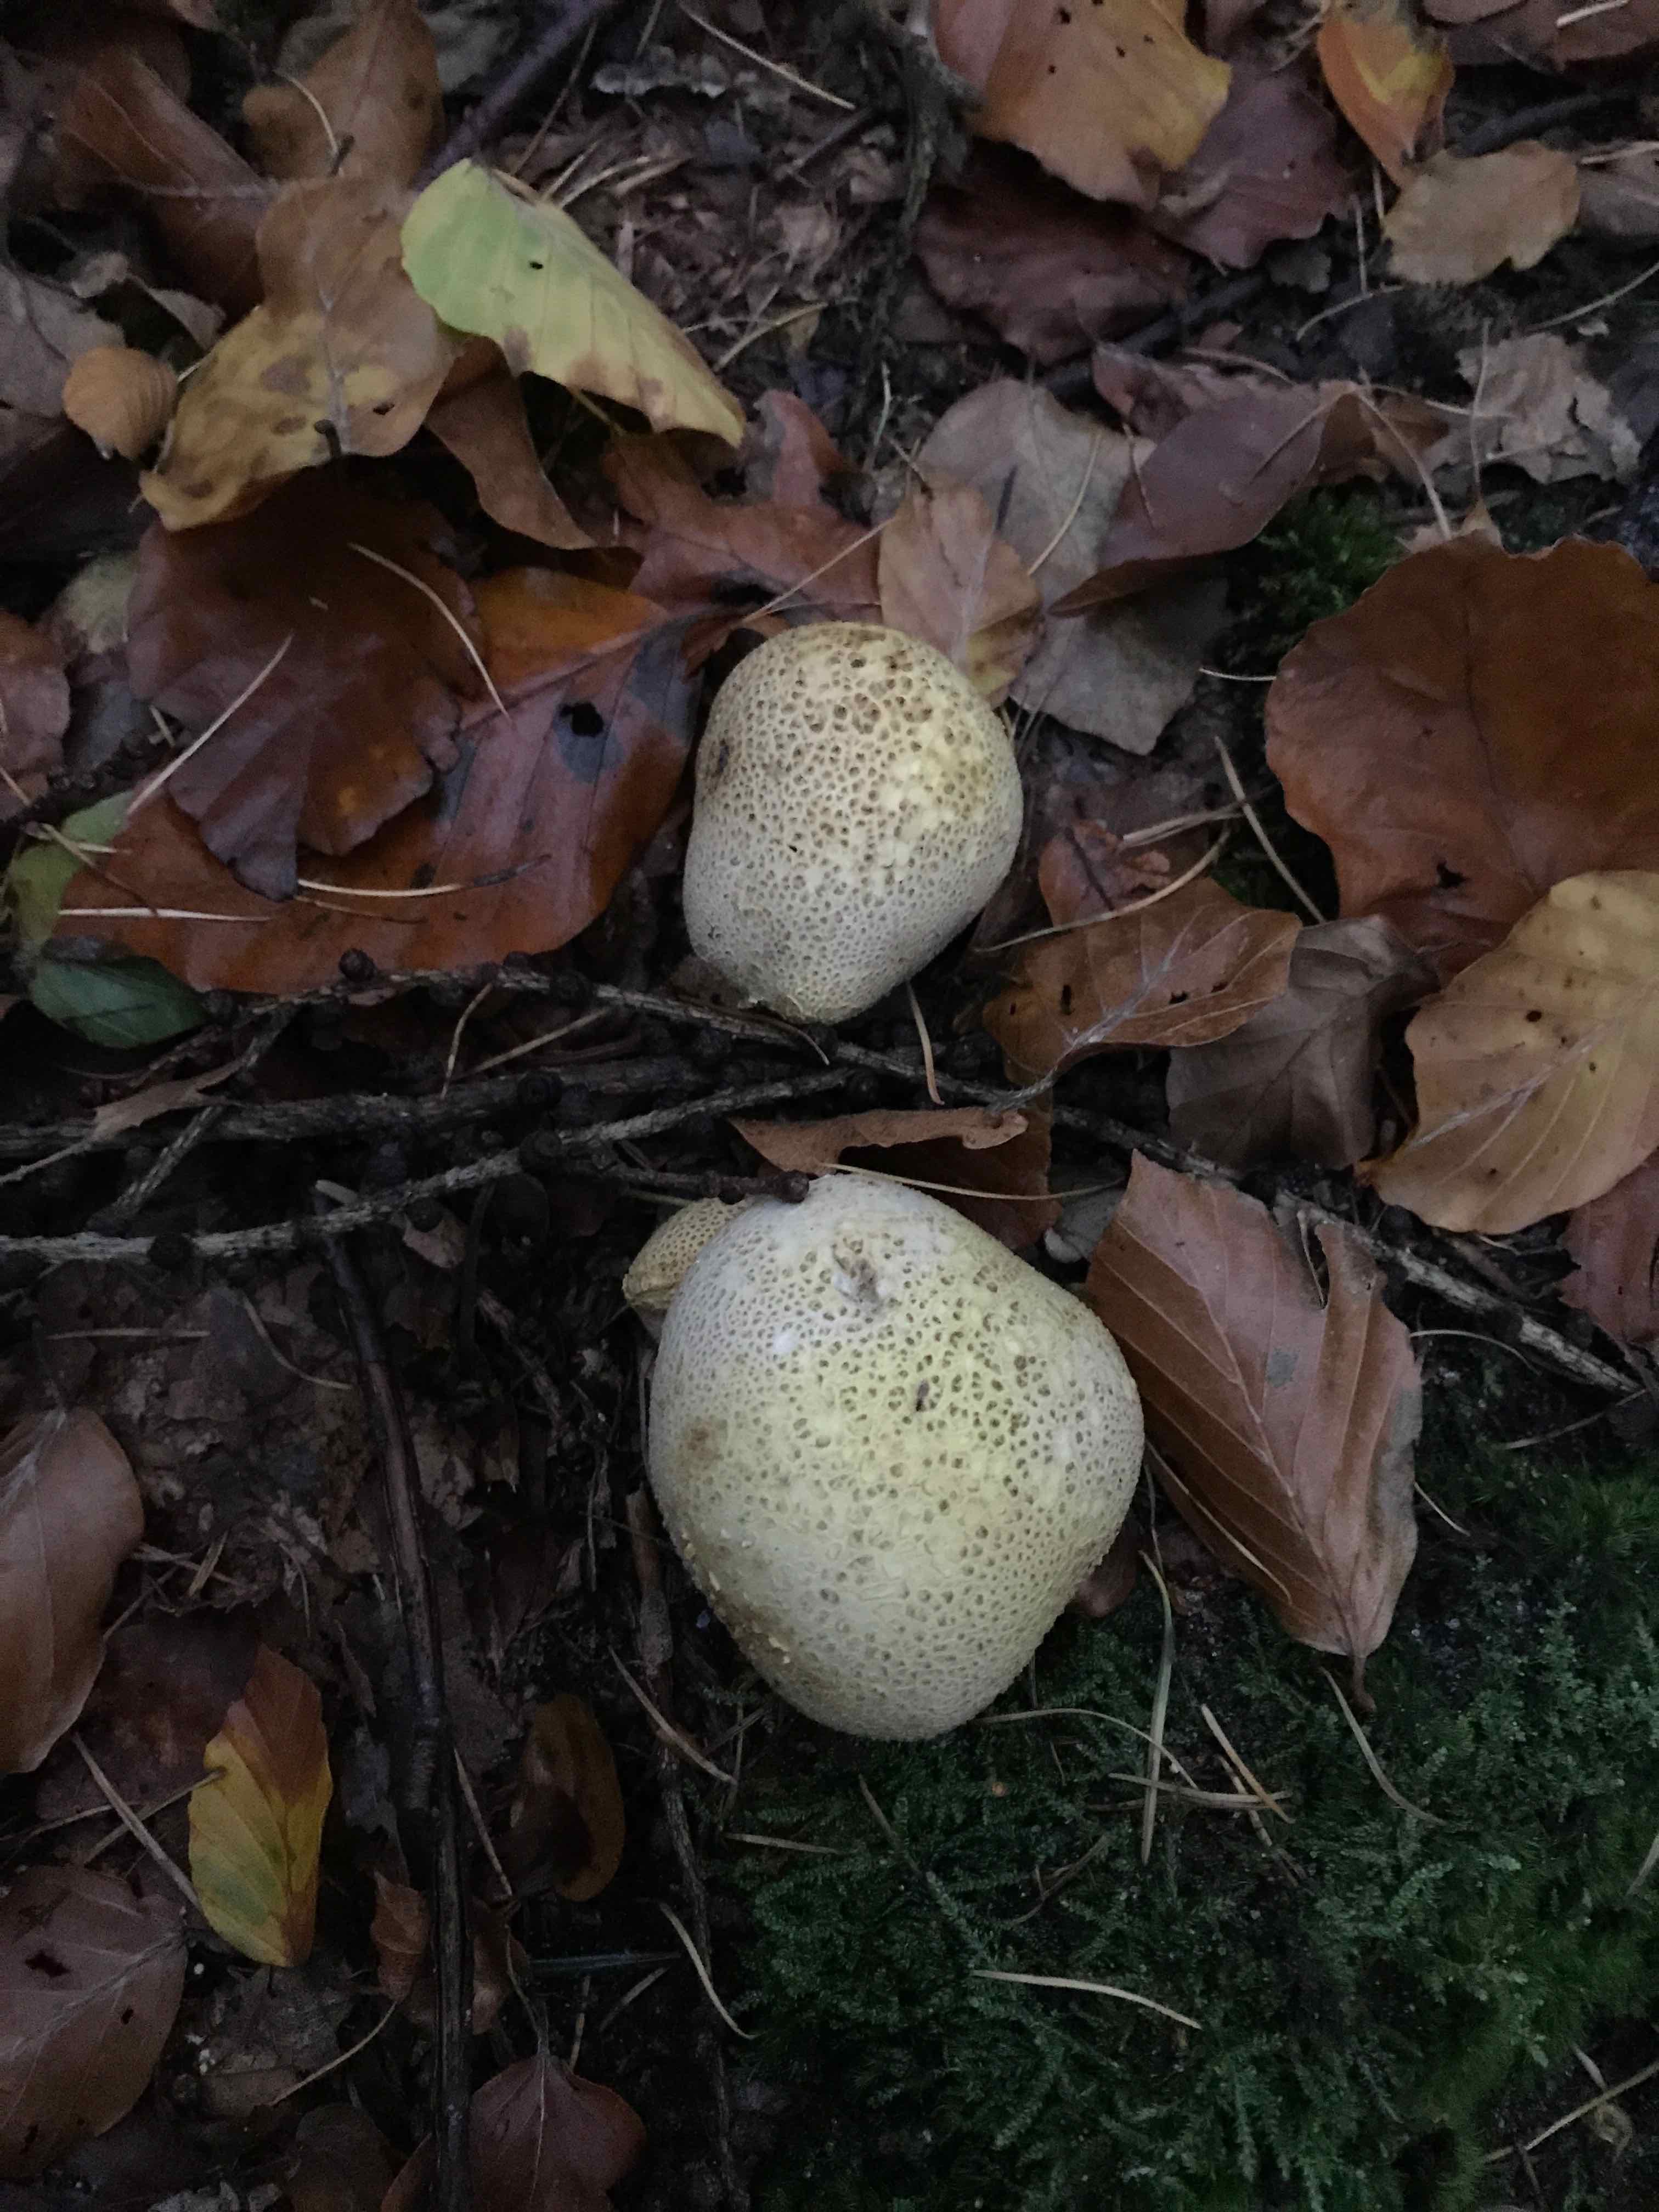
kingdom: Fungi
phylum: Basidiomycota
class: Agaricomycetes
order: Boletales
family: Sclerodermataceae
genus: Scleroderma
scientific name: Scleroderma citrinum
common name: almindelig bruskbold
